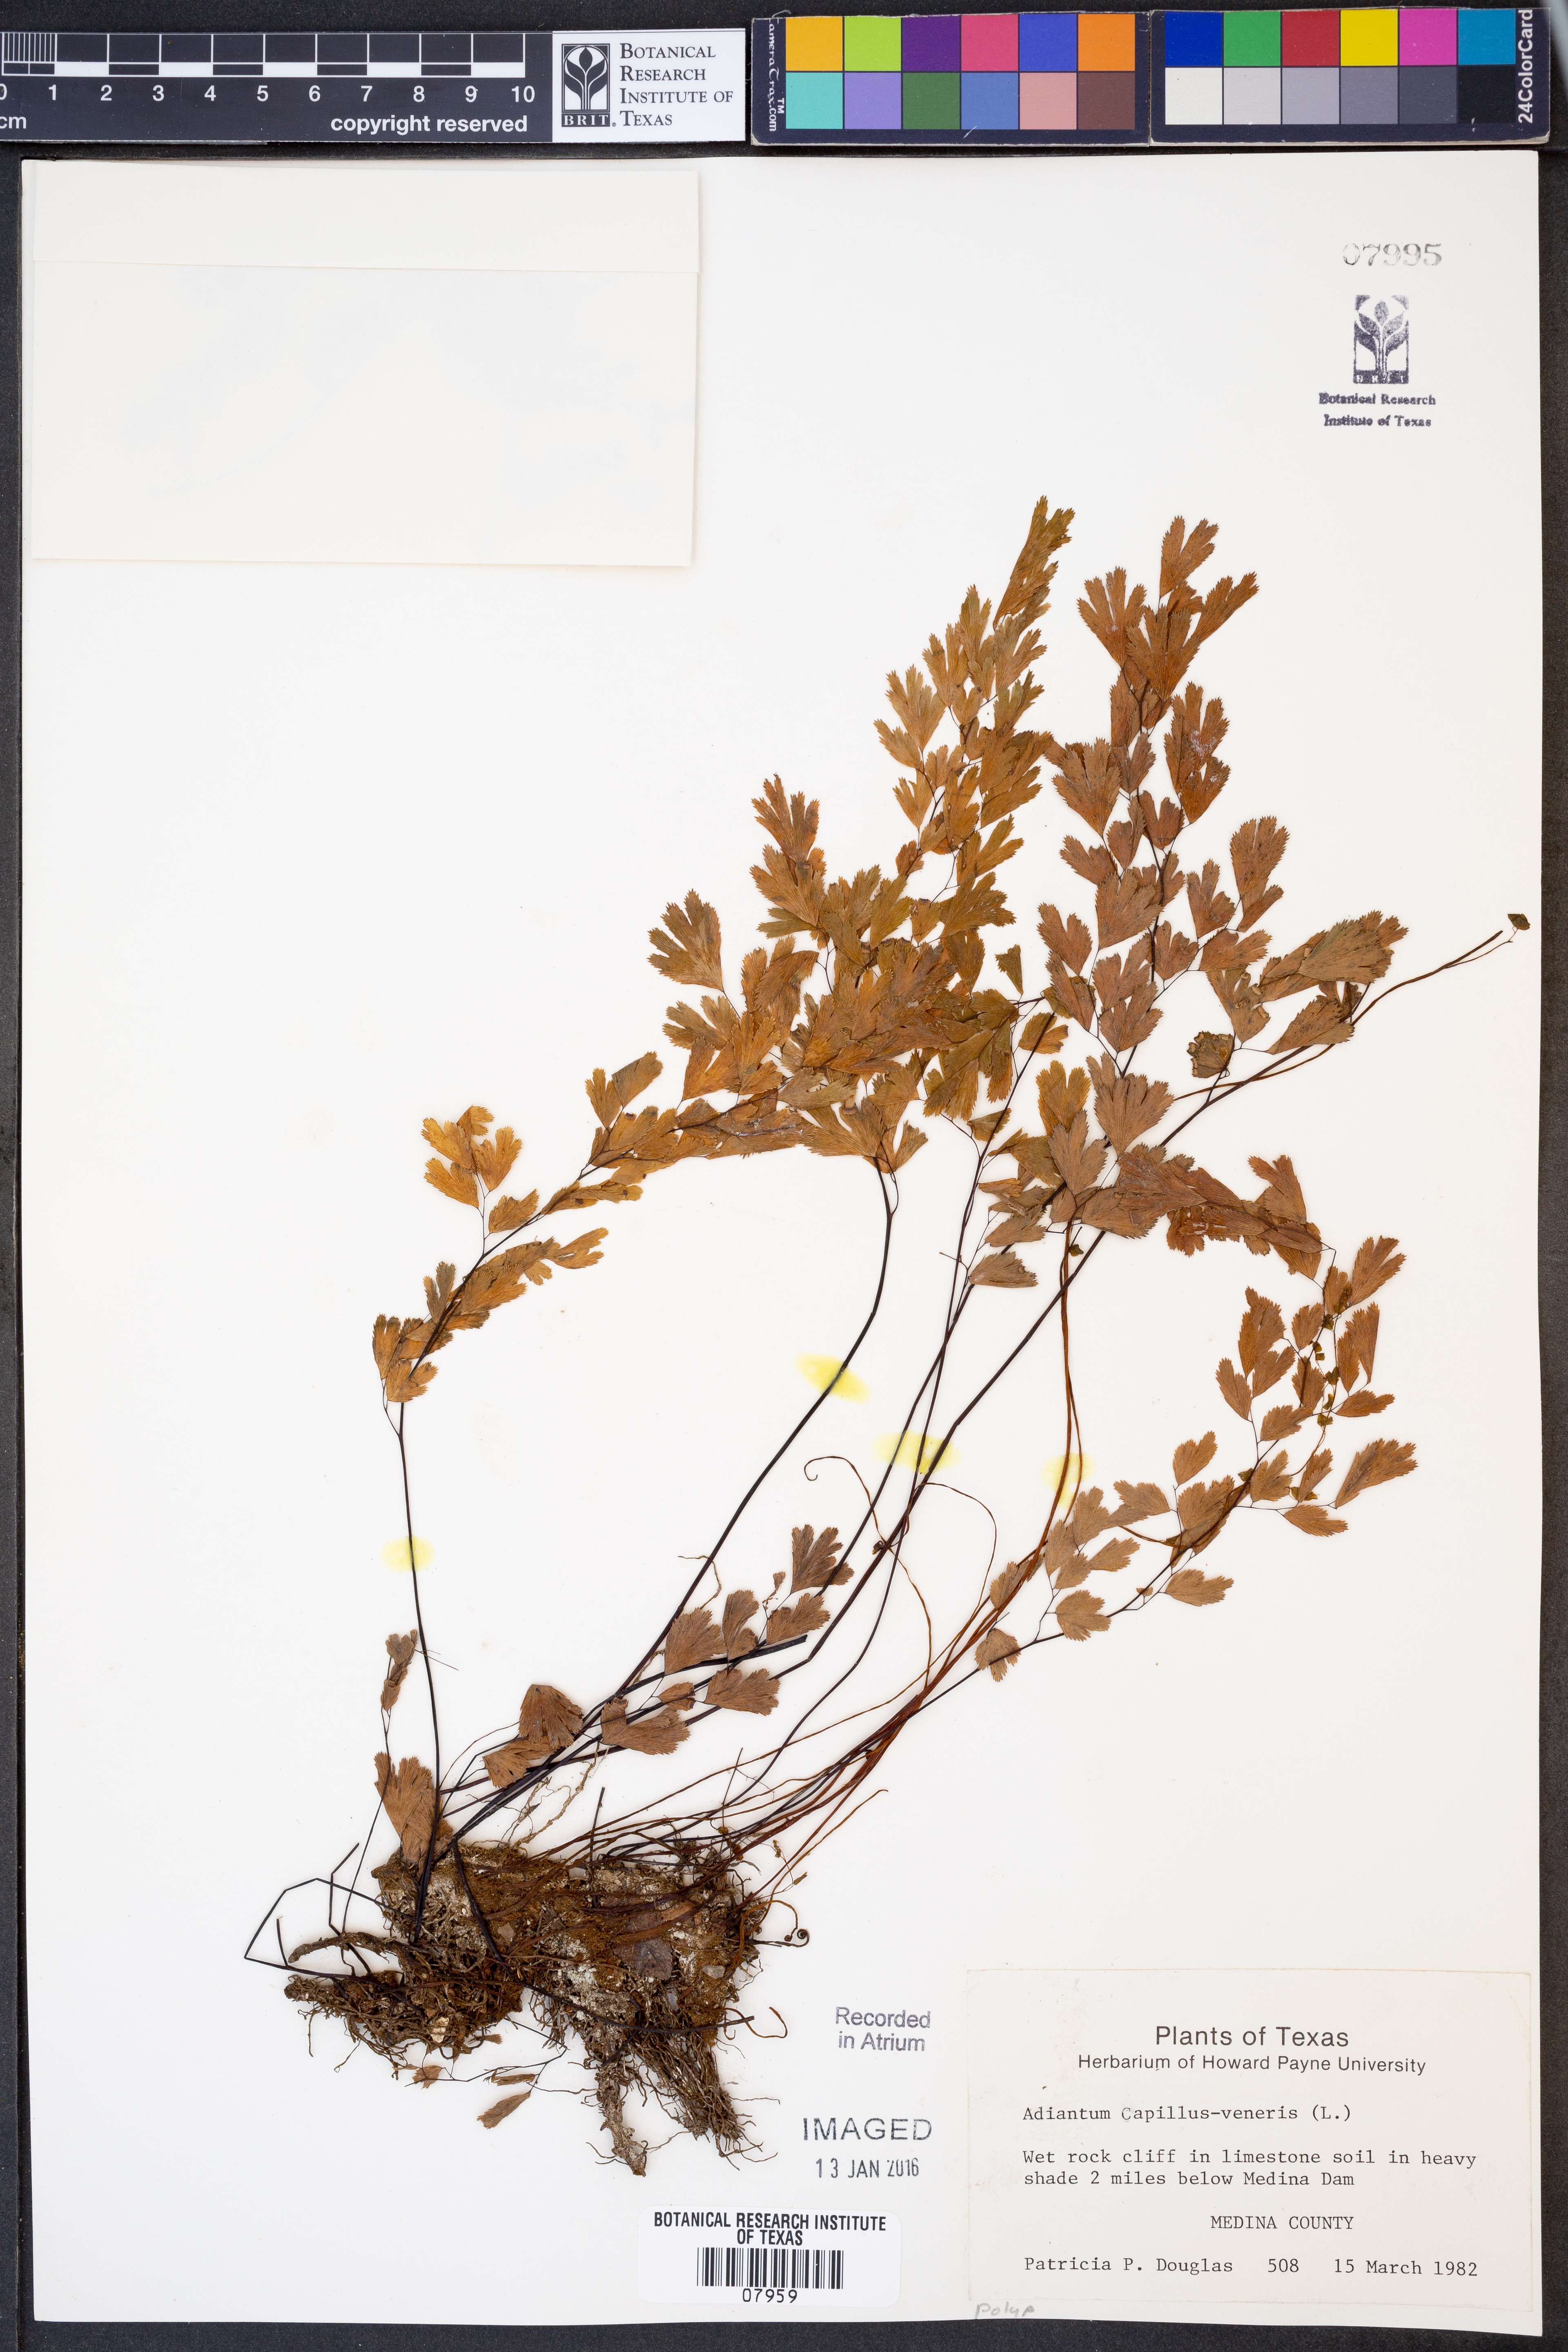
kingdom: Plantae
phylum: Tracheophyta
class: Polypodiopsida
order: Polypodiales
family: Pteridaceae
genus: Adiantum
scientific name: Adiantum capillus-veneris
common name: Maidenhair fern
